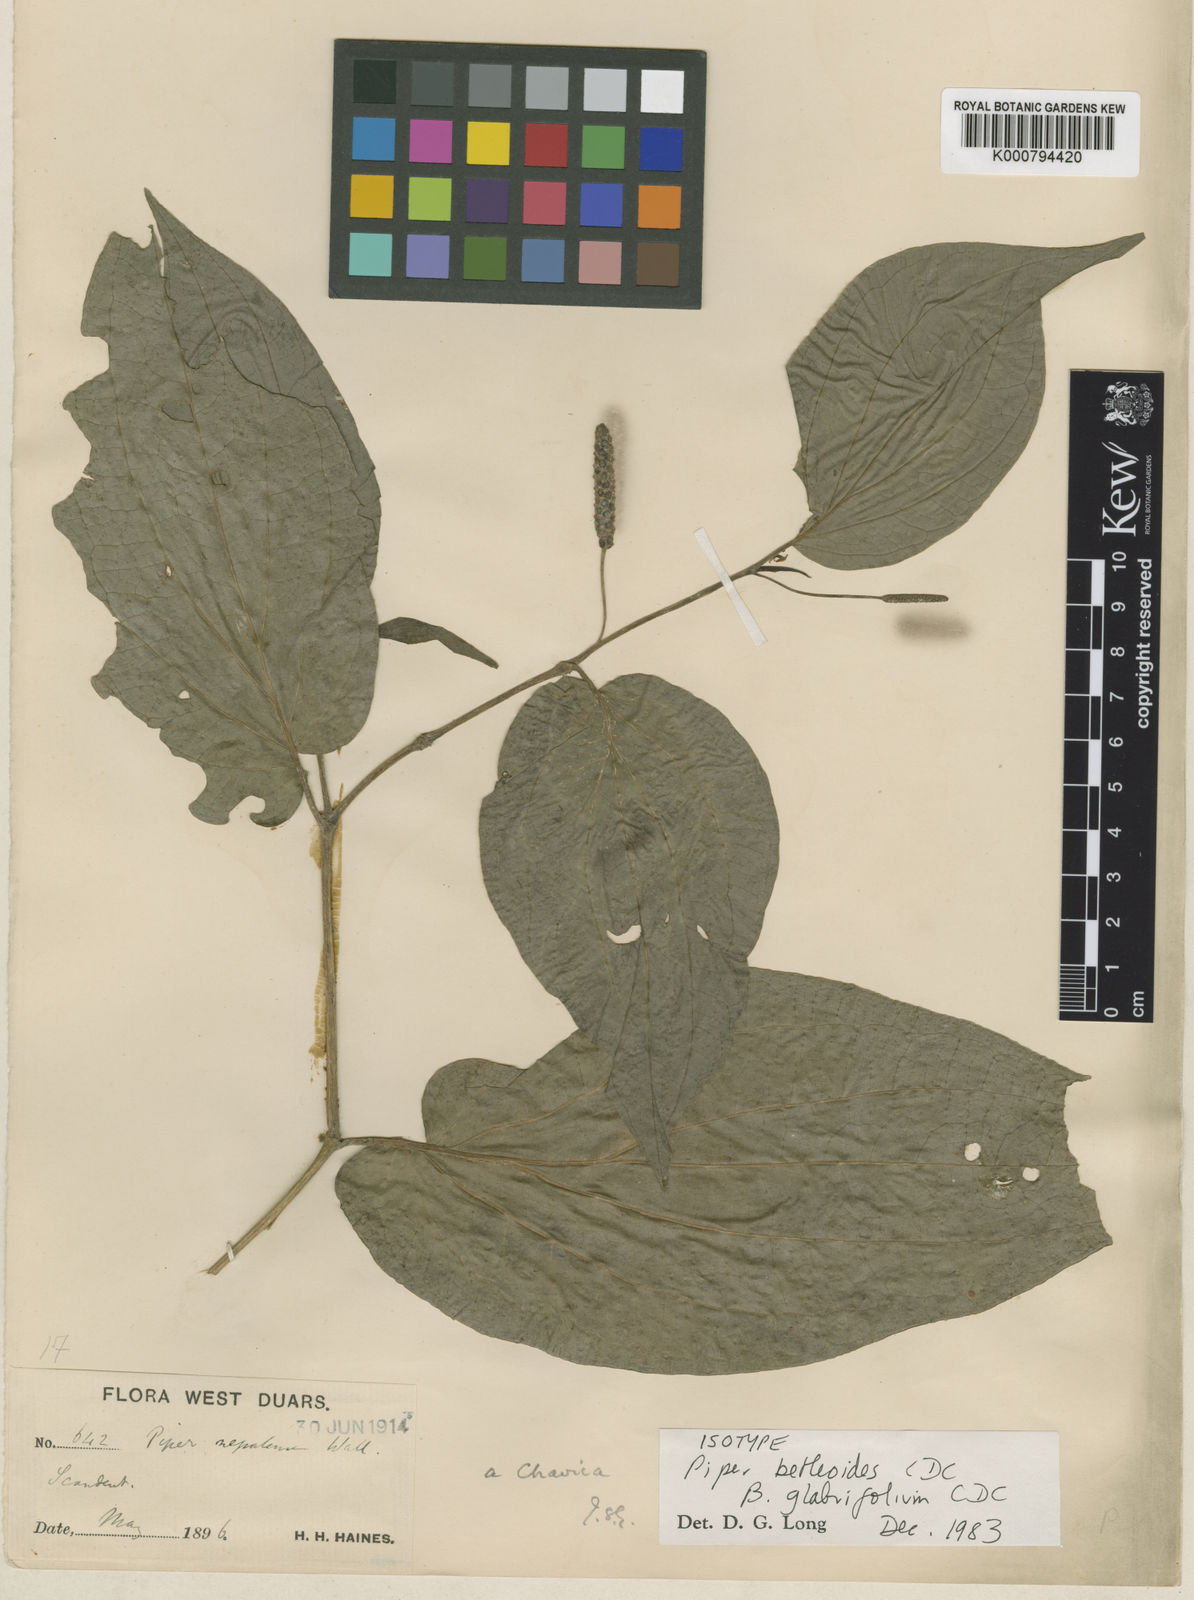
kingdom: Plantae
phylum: Tracheophyta
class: Magnoliopsida
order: Piperales
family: Piperaceae
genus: Piper
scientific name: Piper betleoides
